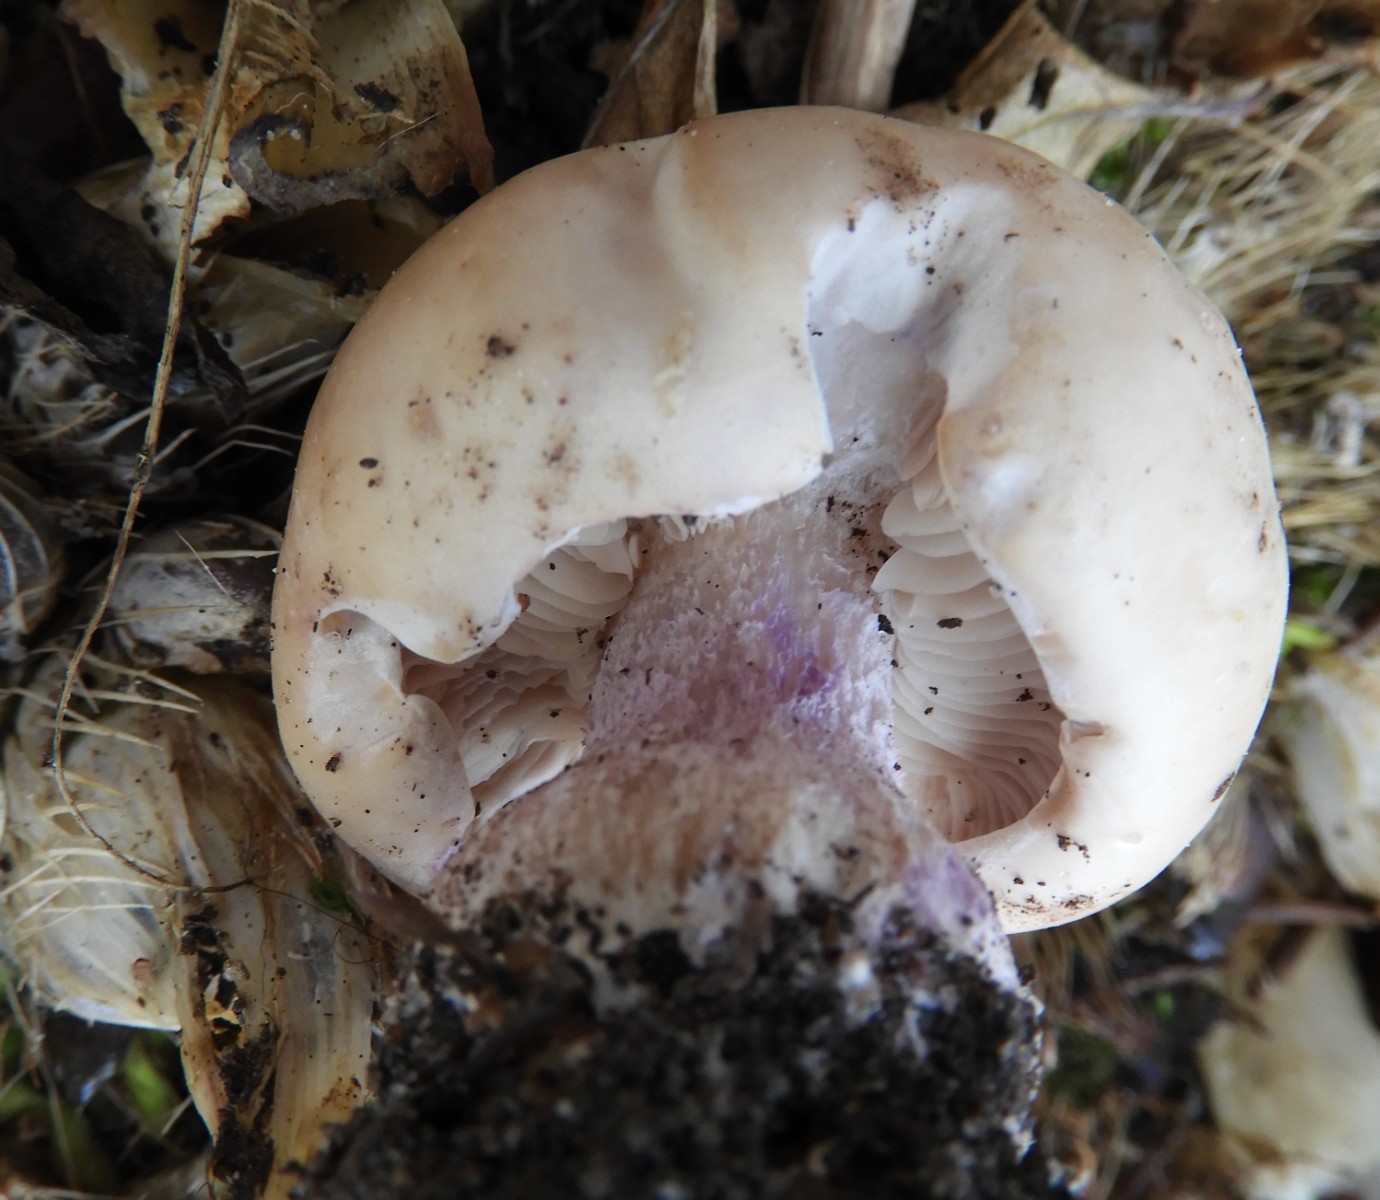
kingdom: Fungi
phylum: Basidiomycota
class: Agaricomycetes
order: Agaricales
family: Tricholomataceae
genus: Lepista
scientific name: Lepista personata
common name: bleg hekseringshat
